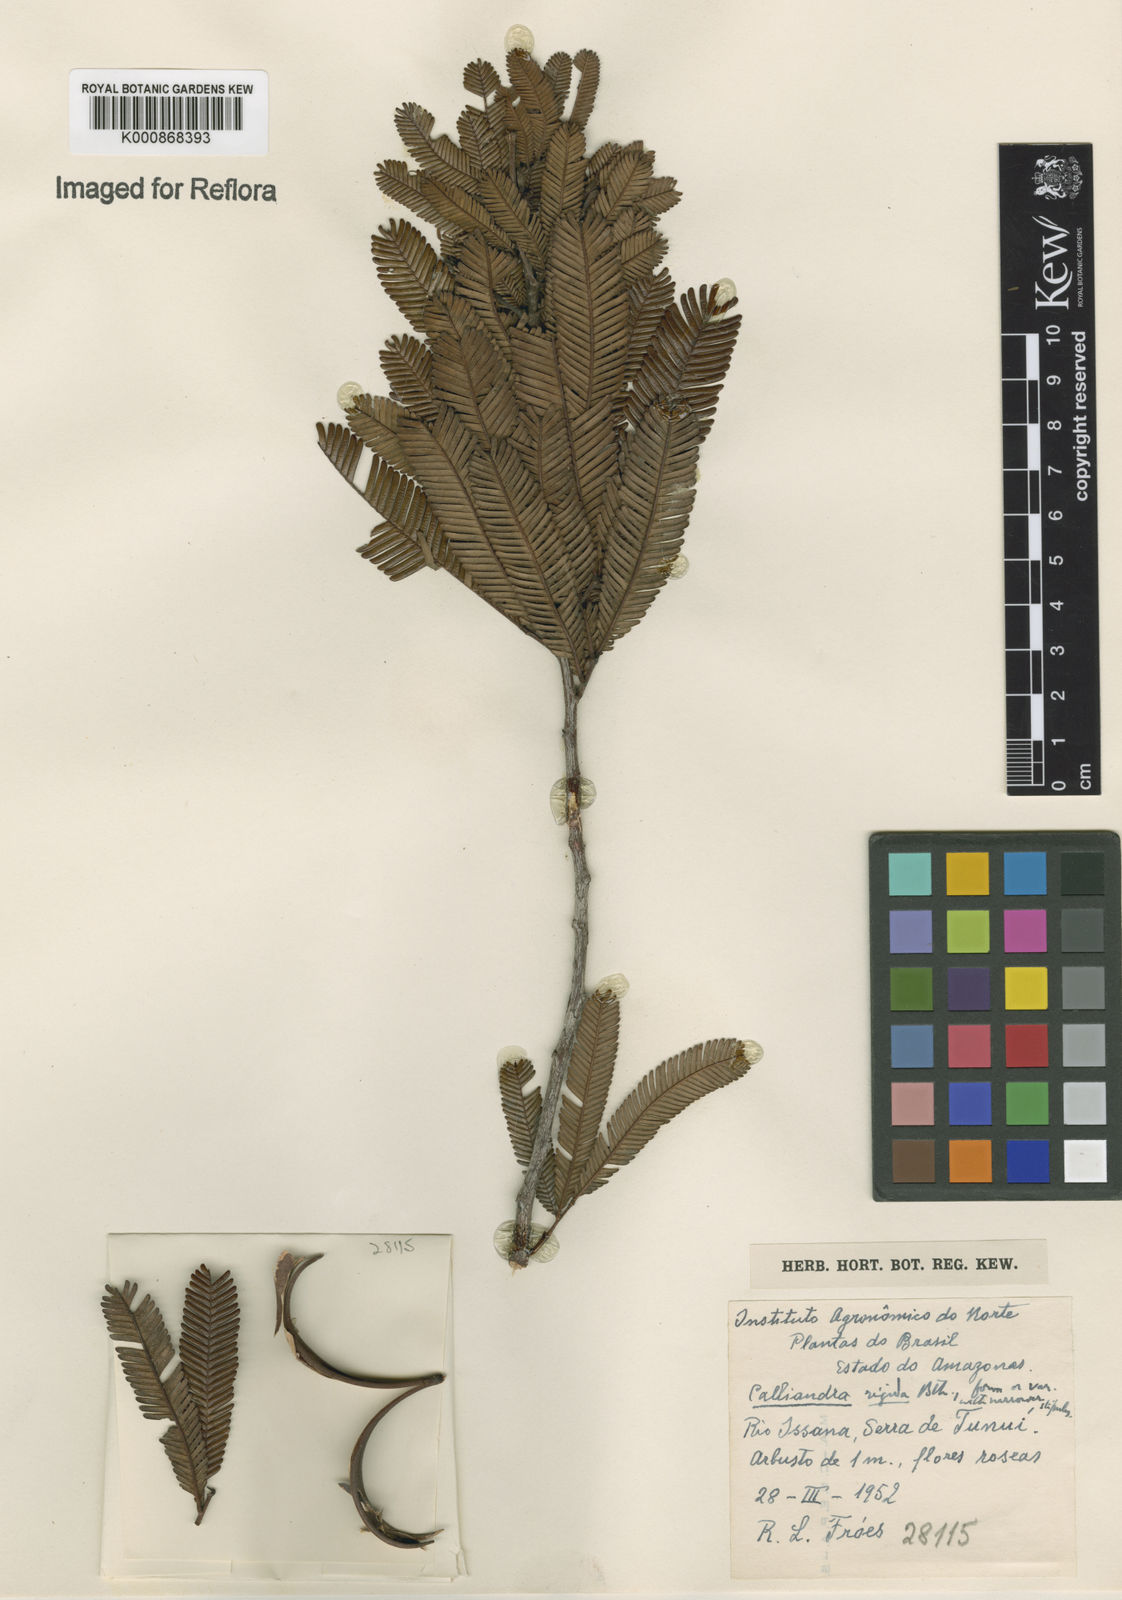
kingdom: Plantae
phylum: Tracheophyta
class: Magnoliopsida
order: Fabales
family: Fabaceae
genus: Calliandra
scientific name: Calliandra rigida
